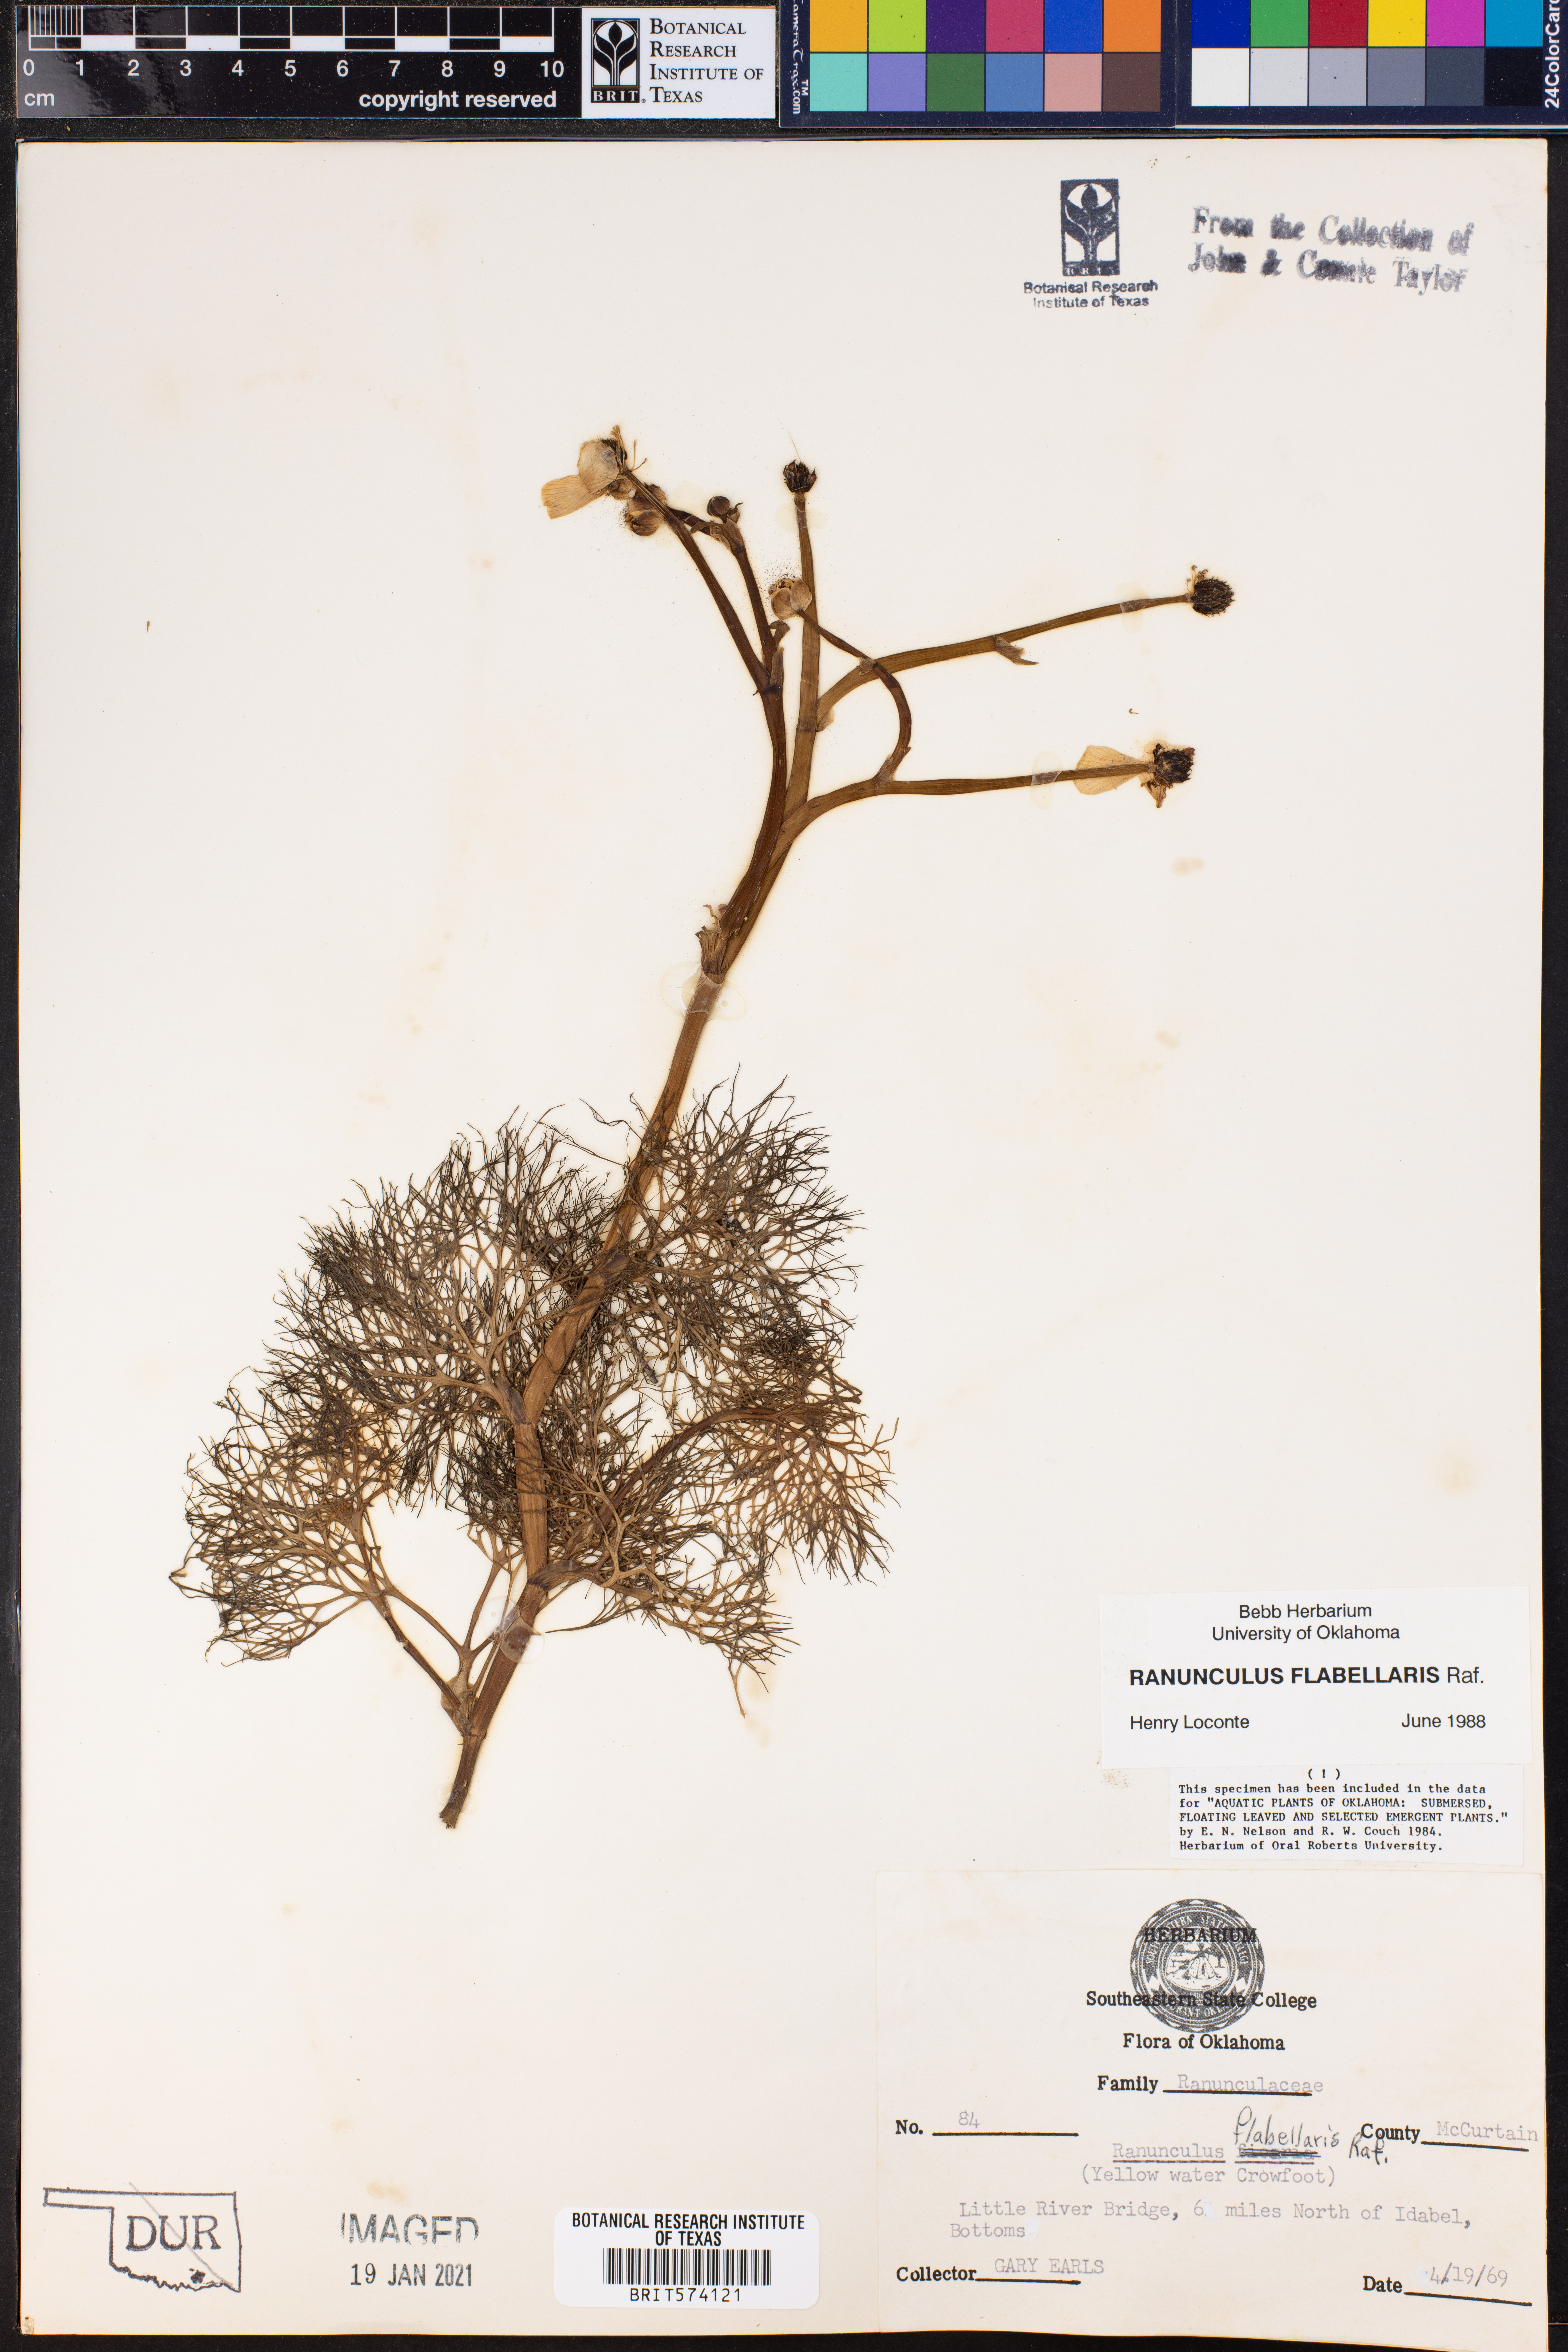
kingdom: Plantae
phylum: Tracheophyta
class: Magnoliopsida
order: Ranunculales
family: Ranunculaceae
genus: Ranunculus
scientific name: Ranunculus flabellaris
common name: Yellow water-crowfoot
